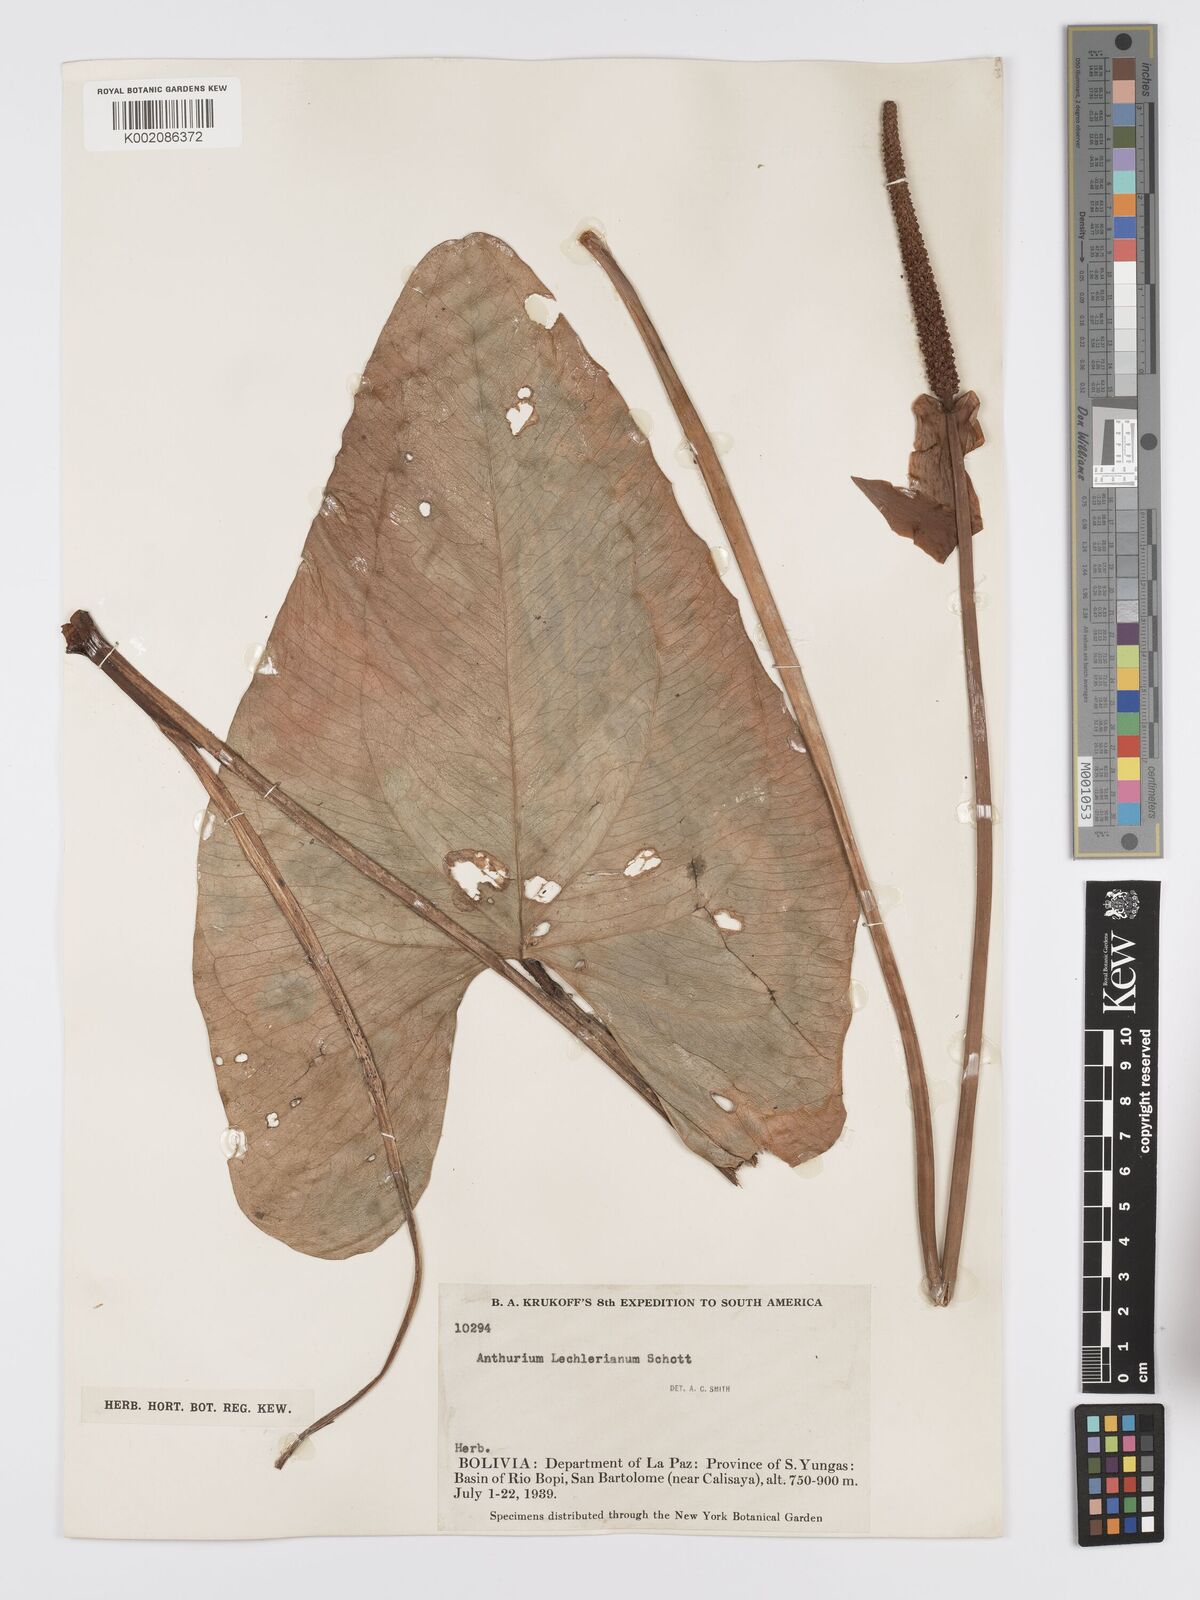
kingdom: Plantae
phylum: Tracheophyta
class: Liliopsida
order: Alismatales
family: Araceae
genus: Anthurium
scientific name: Anthurium lechlerianum
